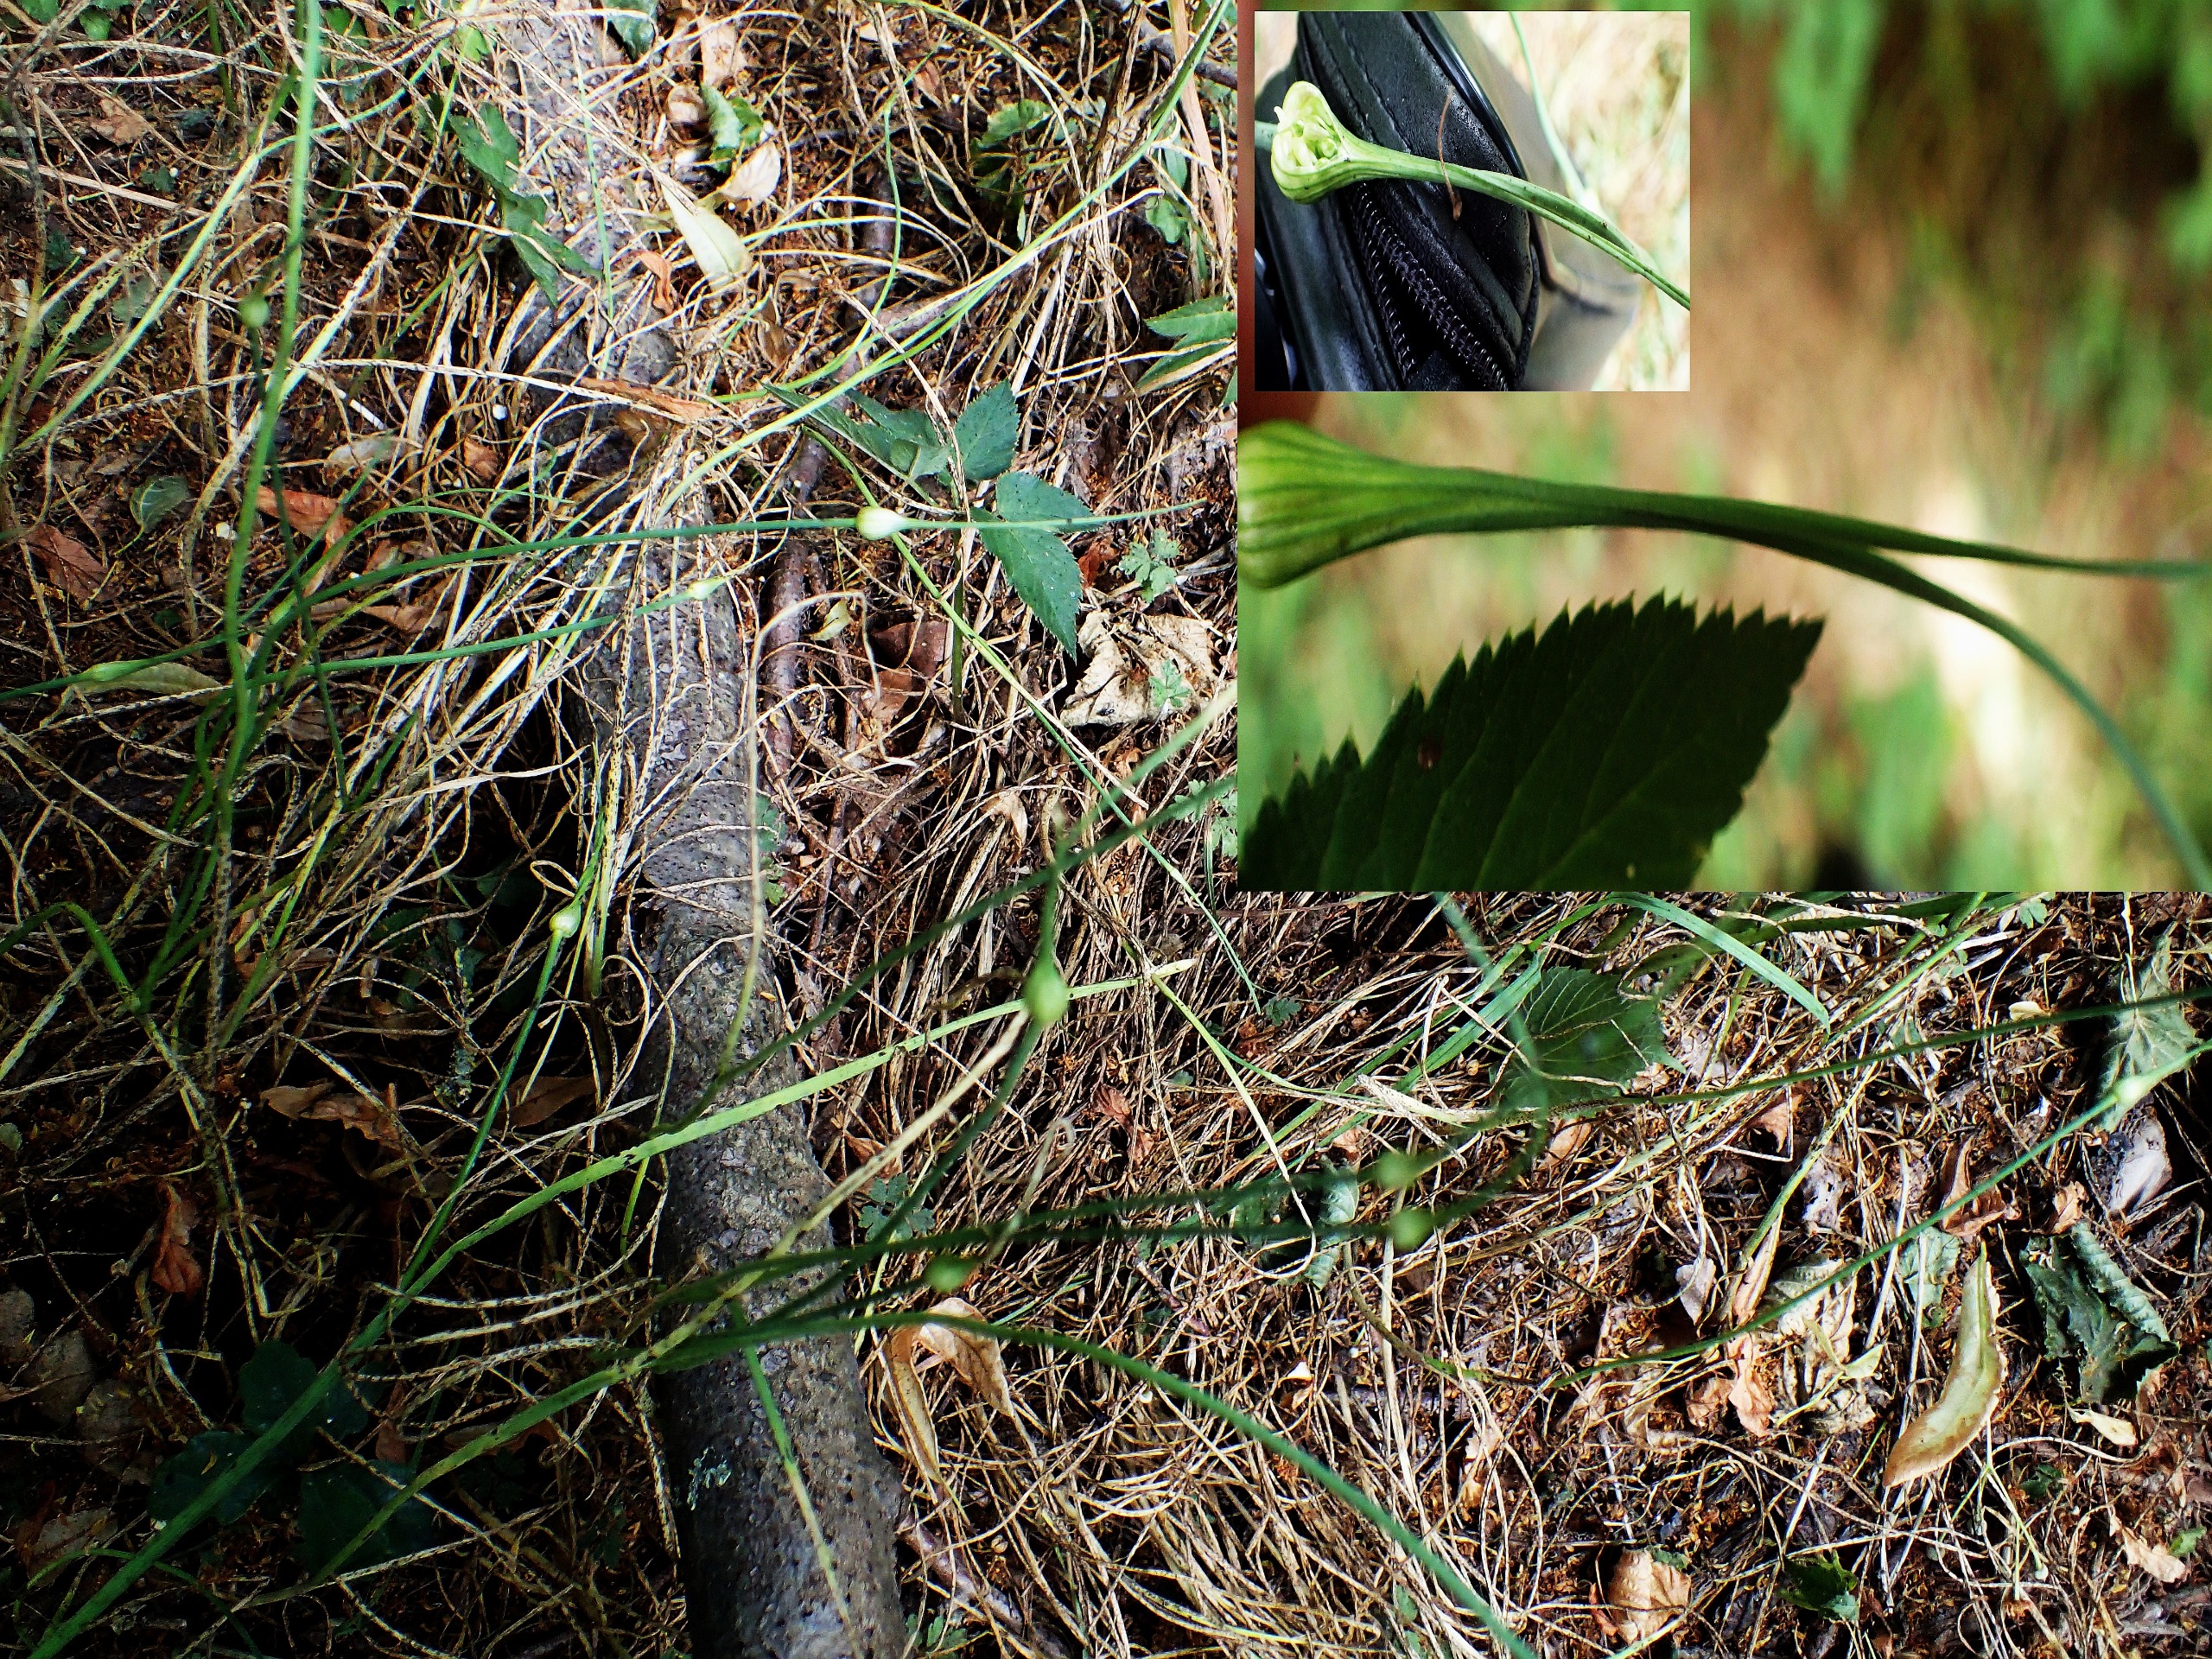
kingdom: Plantae
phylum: Tracheophyta
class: Liliopsida
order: Asparagales
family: Amaryllidaceae
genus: Allium
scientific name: Allium oleraceum
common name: Vild løg
